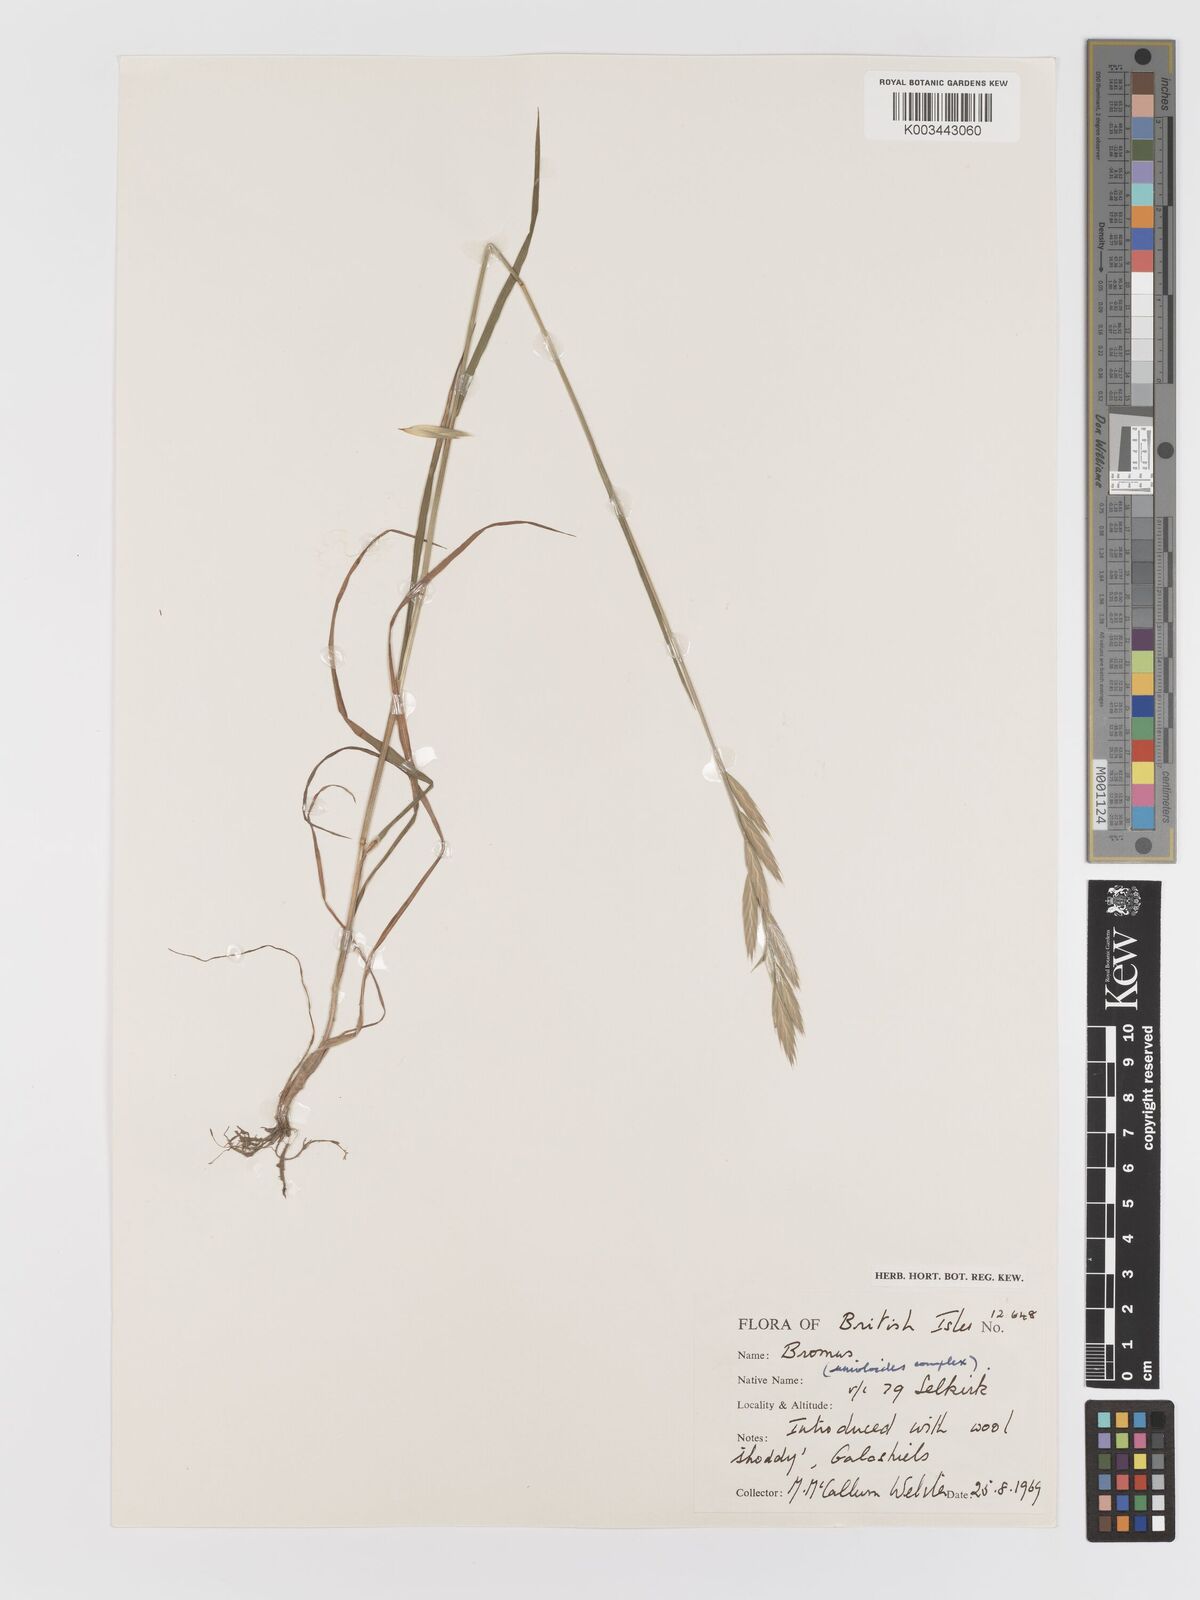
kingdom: Plantae
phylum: Tracheophyta
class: Liliopsida
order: Poales
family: Poaceae
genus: Bromus
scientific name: Bromus catharticus
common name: Rescuegrass
